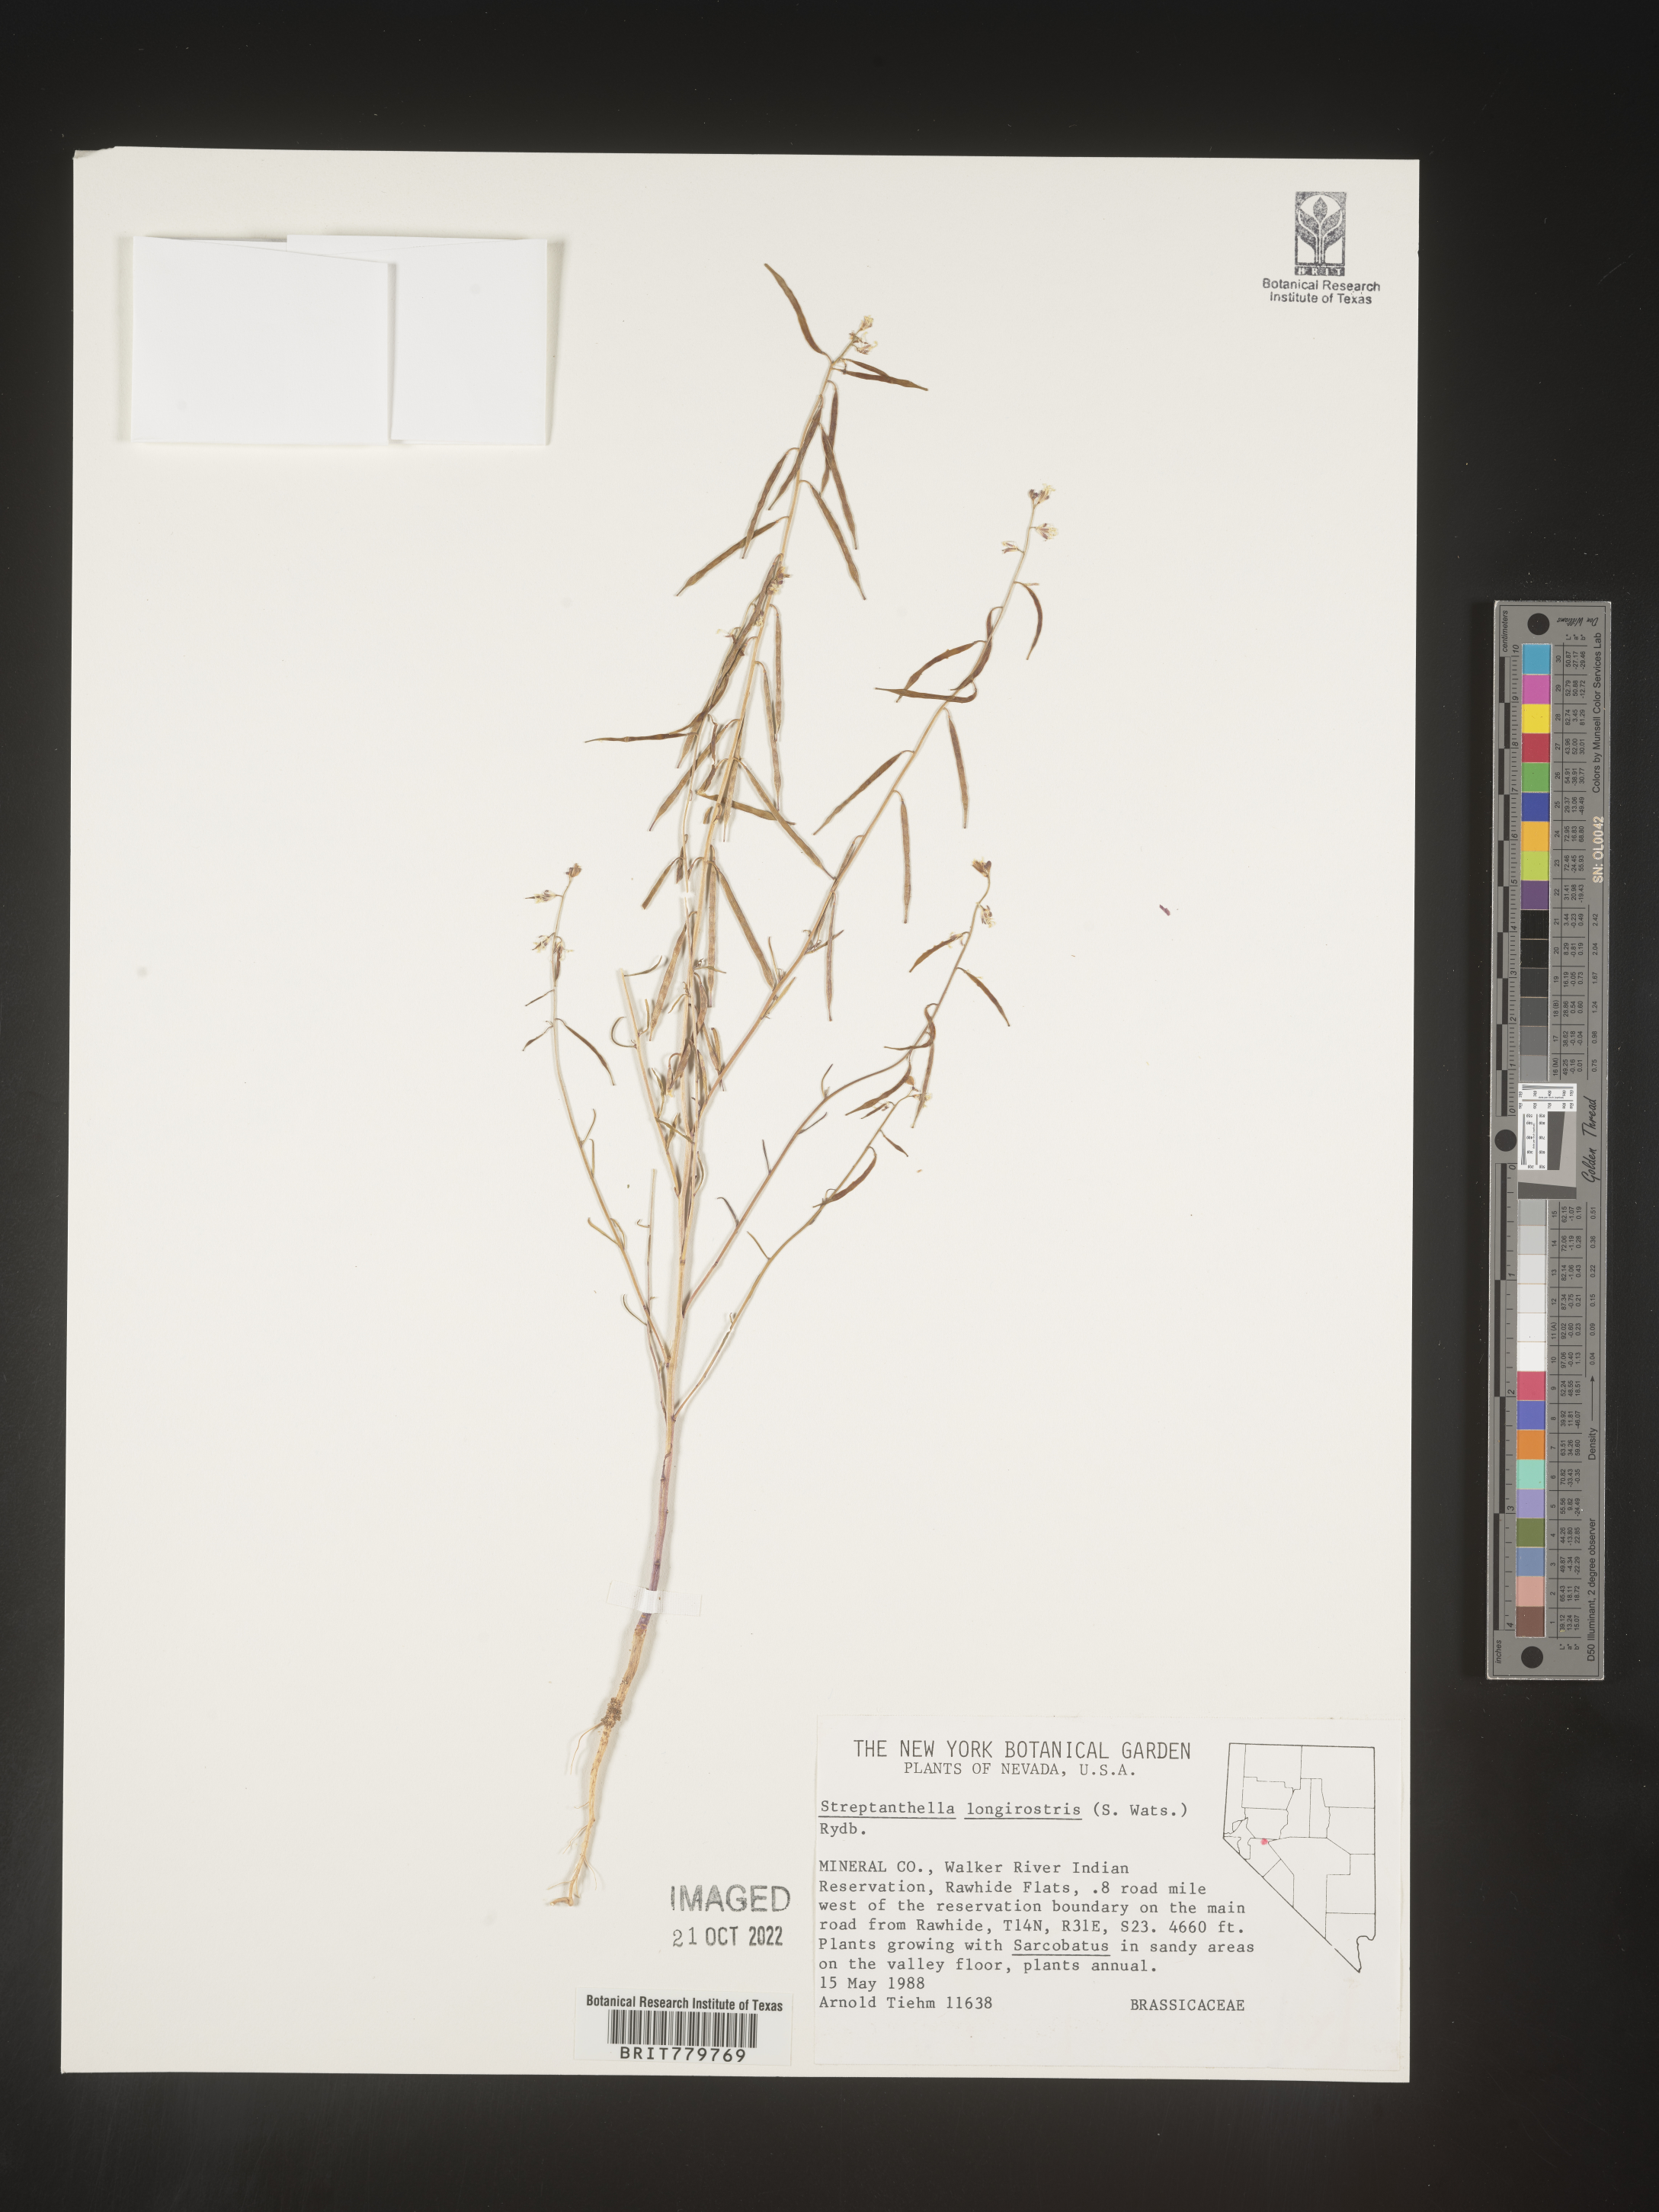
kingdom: Plantae
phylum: Tracheophyta
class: Magnoliopsida
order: Brassicales
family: Brassicaceae
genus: Streptanthus
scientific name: Streptanthus
